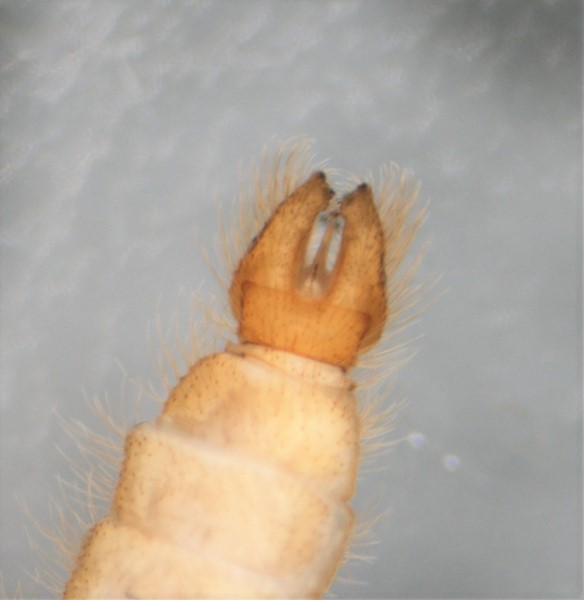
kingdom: Animalia
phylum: Arthropoda
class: Insecta
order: Diptera
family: Limoniidae
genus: Molophilus
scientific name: Molophilus medius
